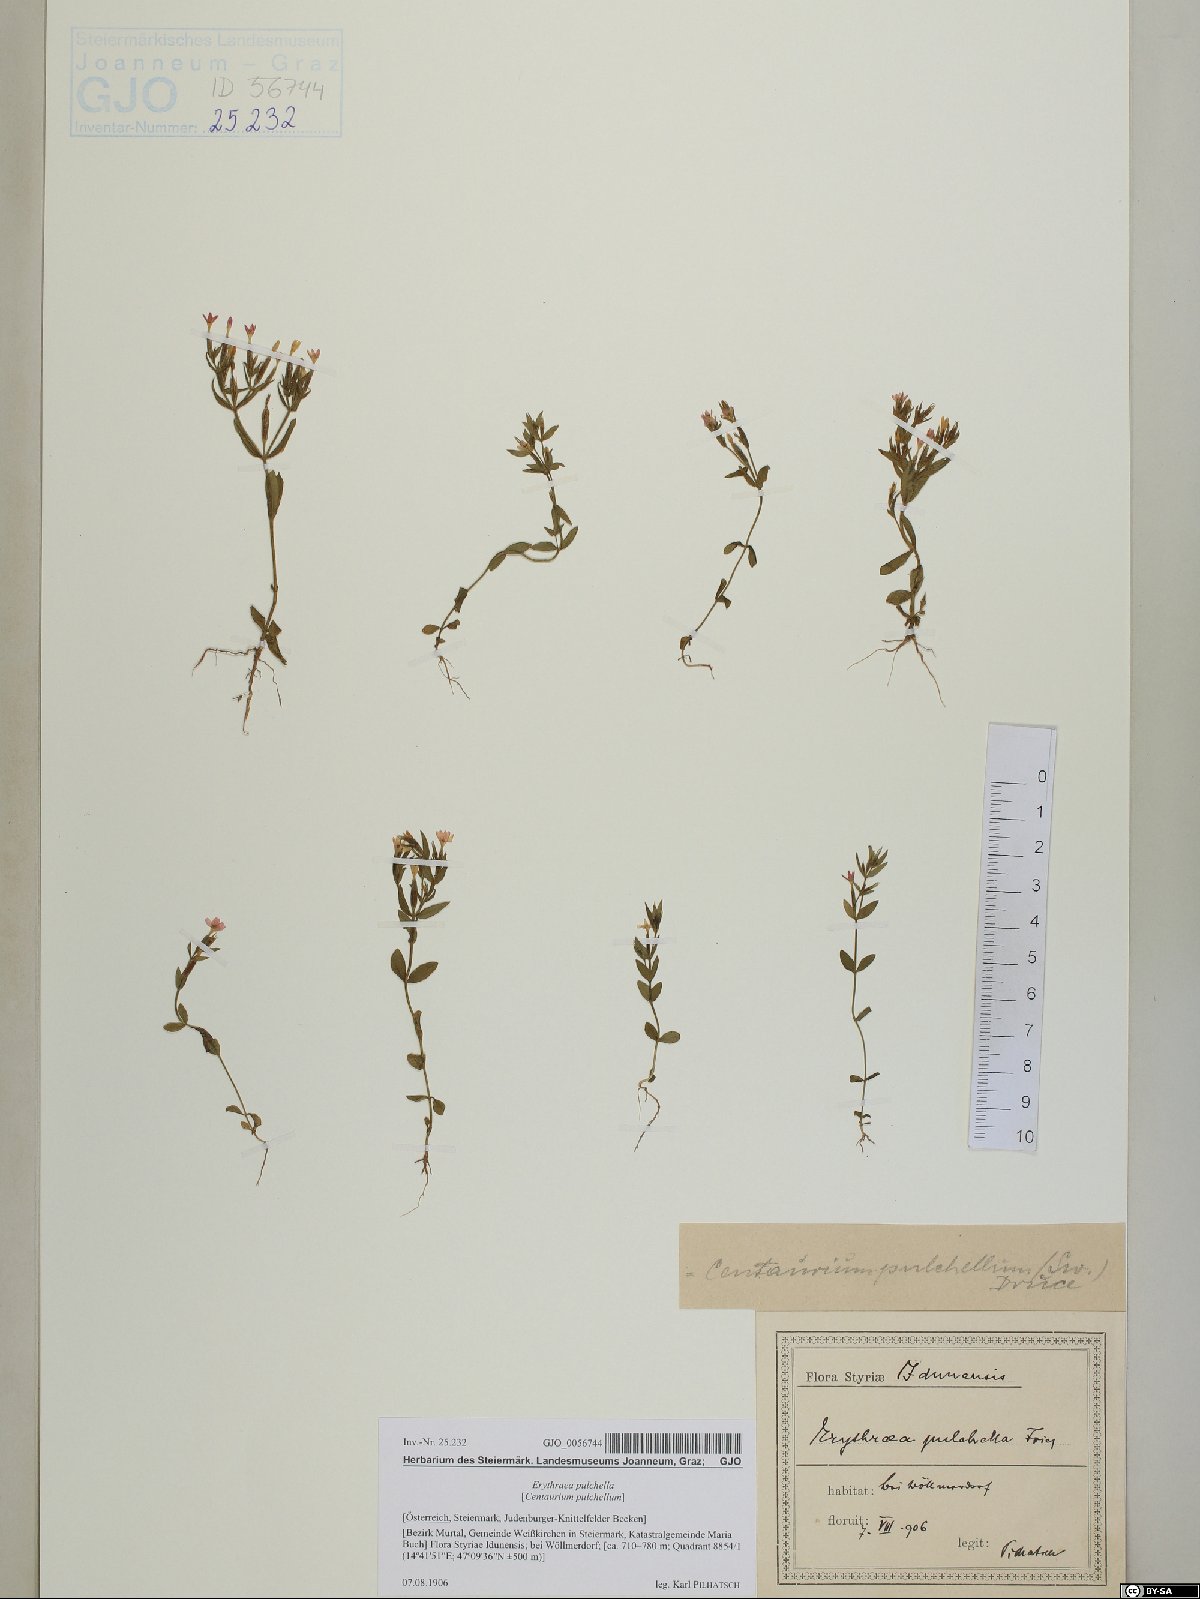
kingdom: Plantae
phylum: Tracheophyta
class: Magnoliopsida
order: Gentianales
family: Gentianaceae
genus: Centaurium
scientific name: Centaurium pulchellum
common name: Lesser centaury
